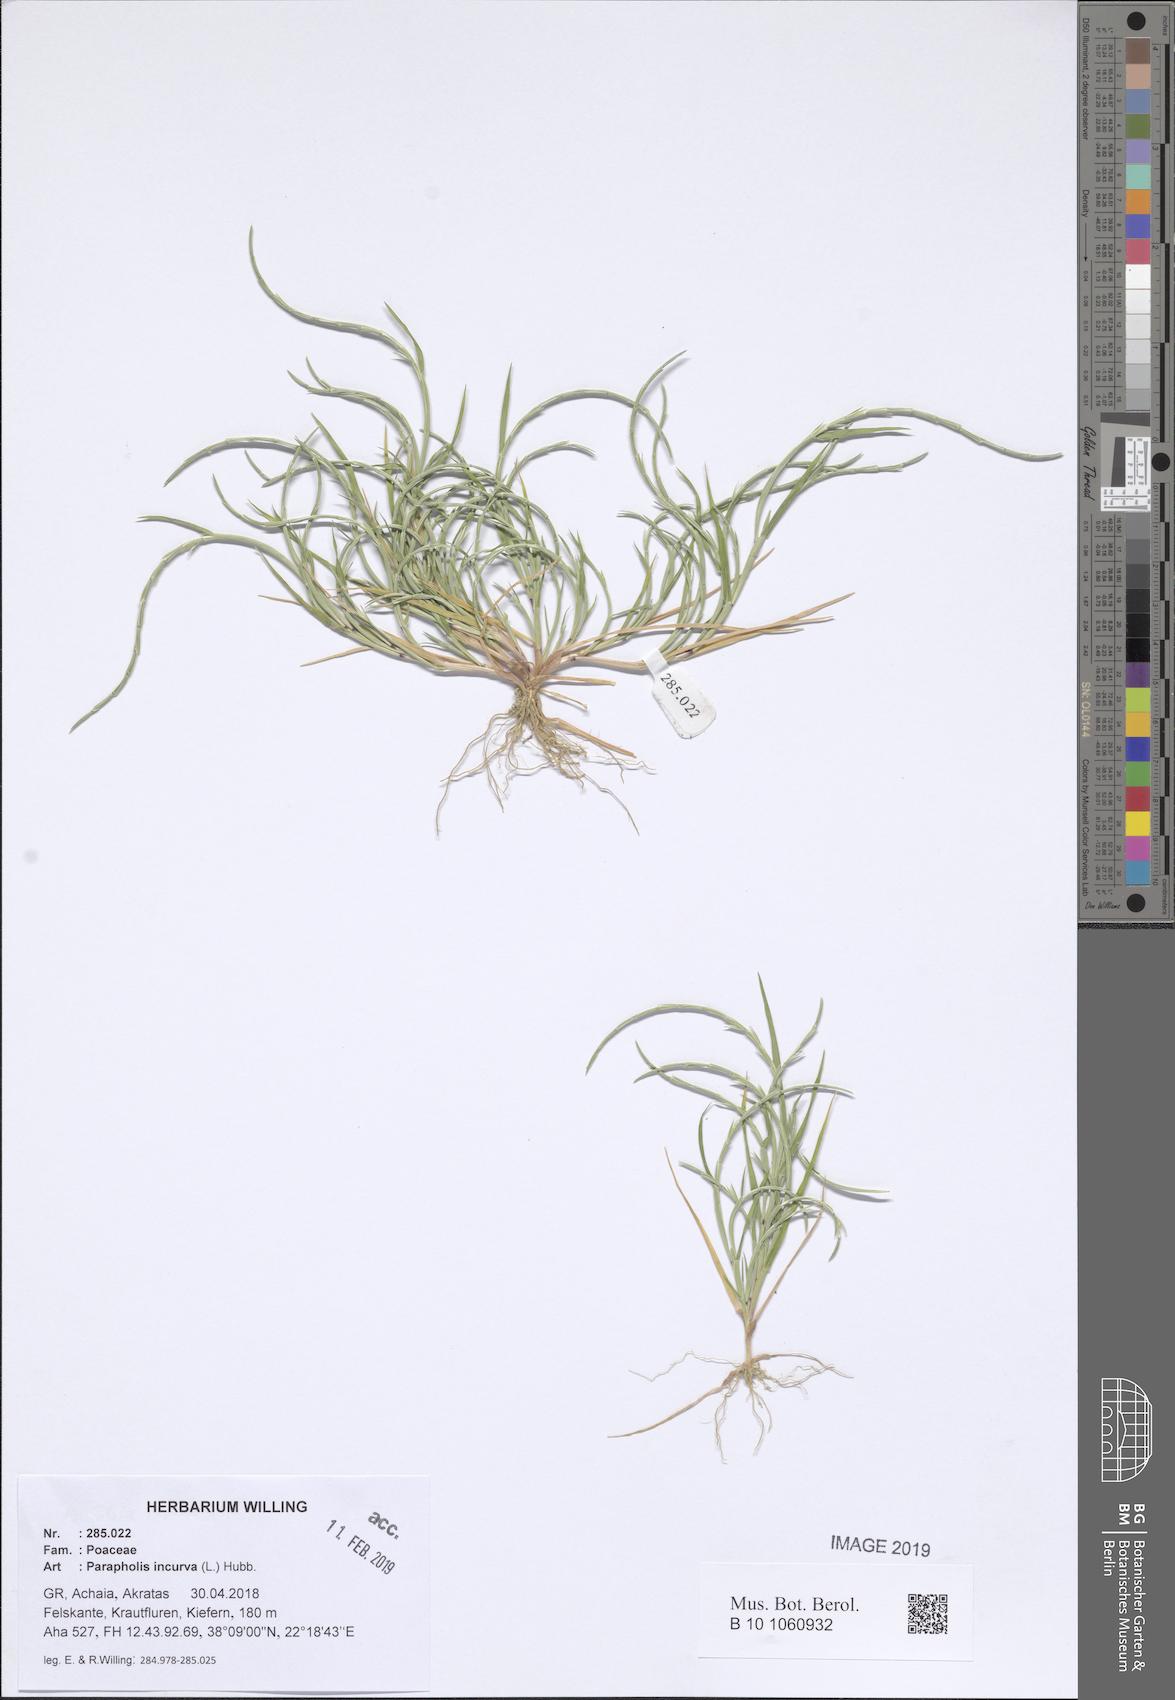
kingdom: Plantae
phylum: Tracheophyta
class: Liliopsida
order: Poales
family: Poaceae
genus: Parapholis
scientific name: Parapholis incurva
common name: Curved sicklegrass
